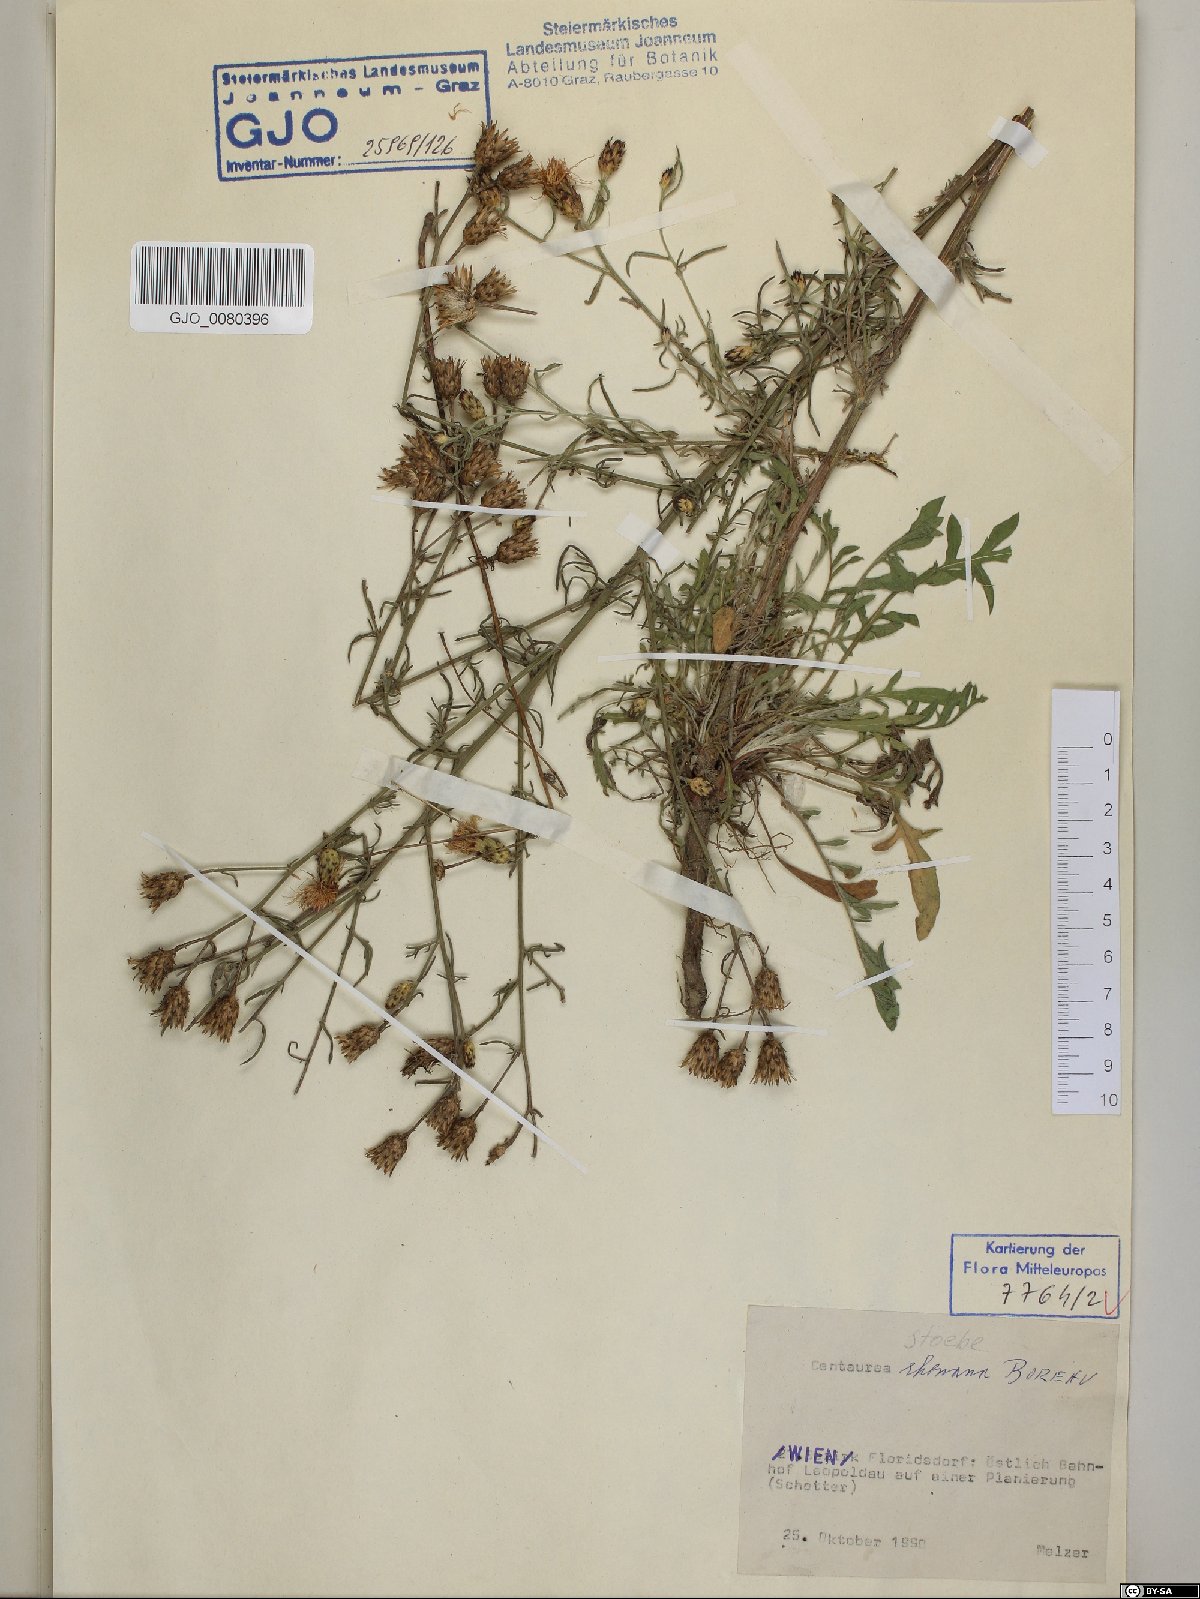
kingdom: Plantae
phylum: Tracheophyta
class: Magnoliopsida
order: Asterales
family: Asteraceae
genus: Centaurea
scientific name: Centaurea stoebe
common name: Spotted knapweed
